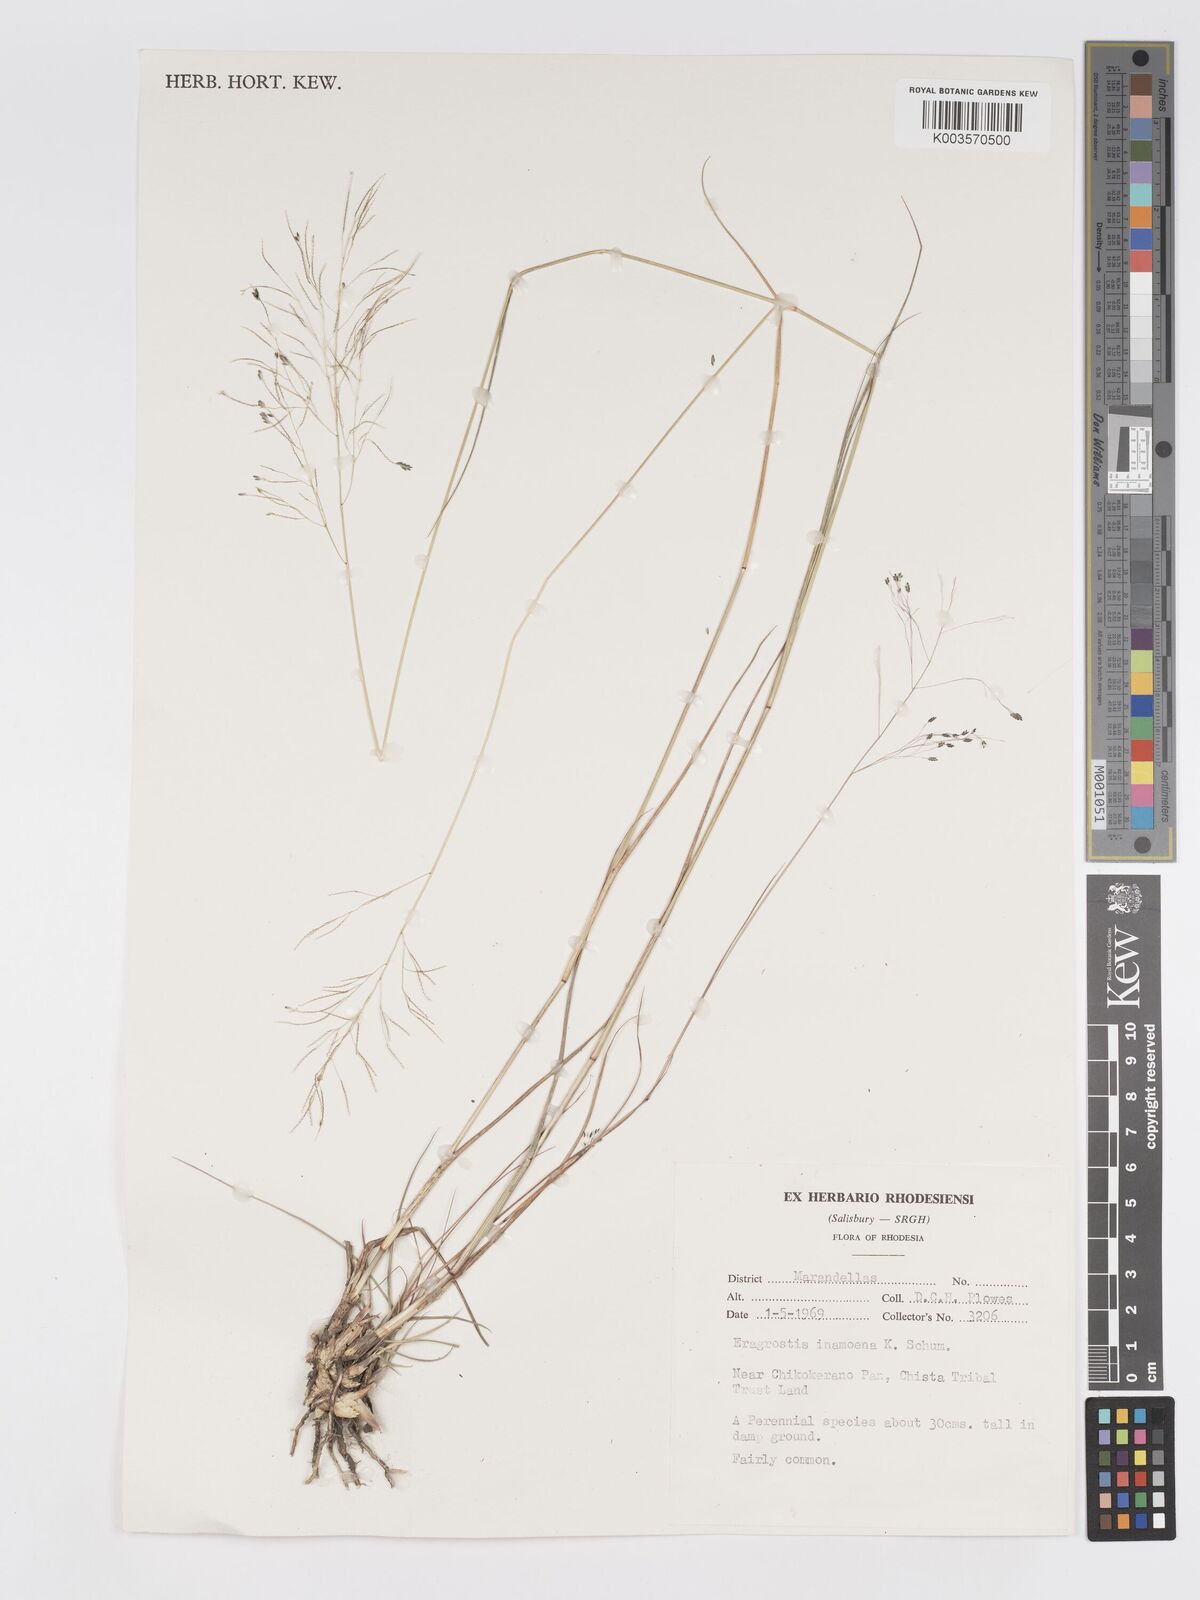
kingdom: Plantae
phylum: Tracheophyta
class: Liliopsida
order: Poales
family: Poaceae
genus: Eragrostis
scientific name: Eragrostis inamoena
